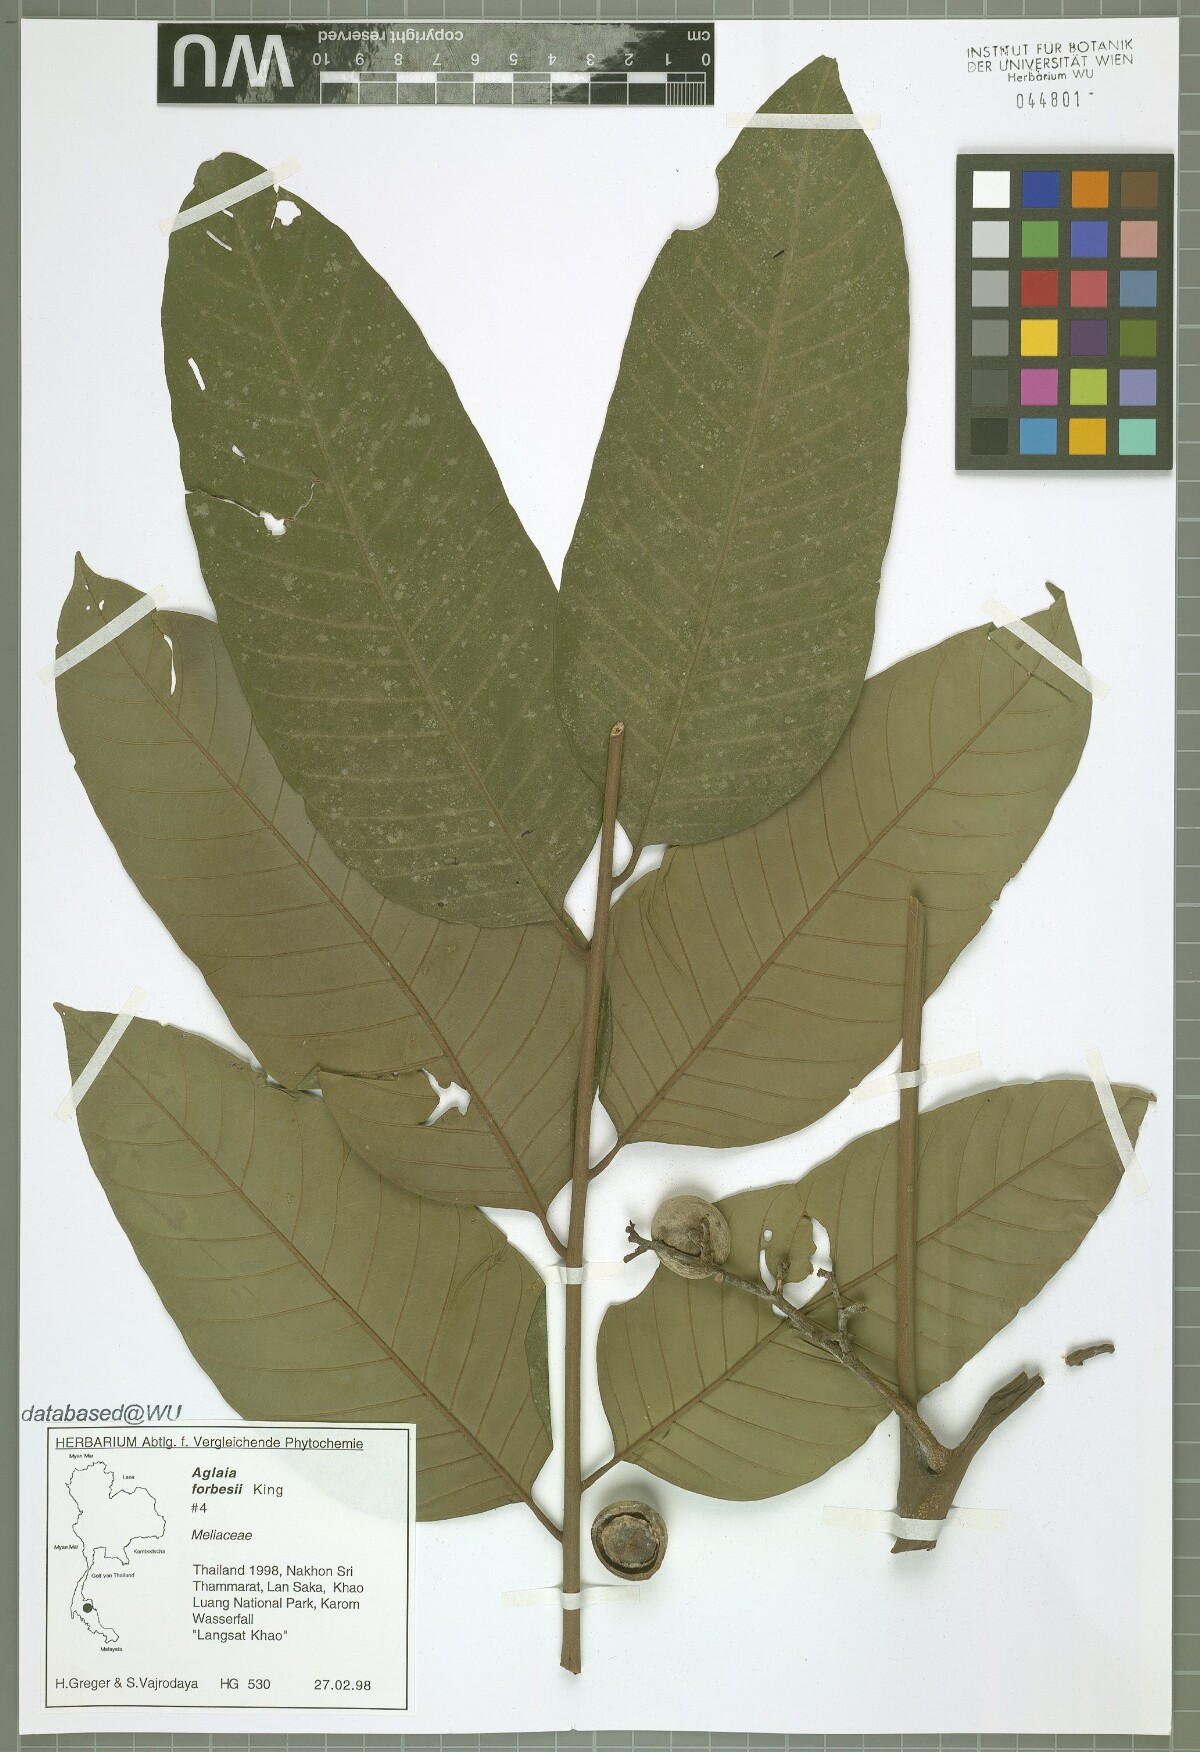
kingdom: Plantae
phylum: Tracheophyta
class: Magnoliopsida
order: Sapindales
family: Meliaceae
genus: Aglaia
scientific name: Aglaia forbesii
